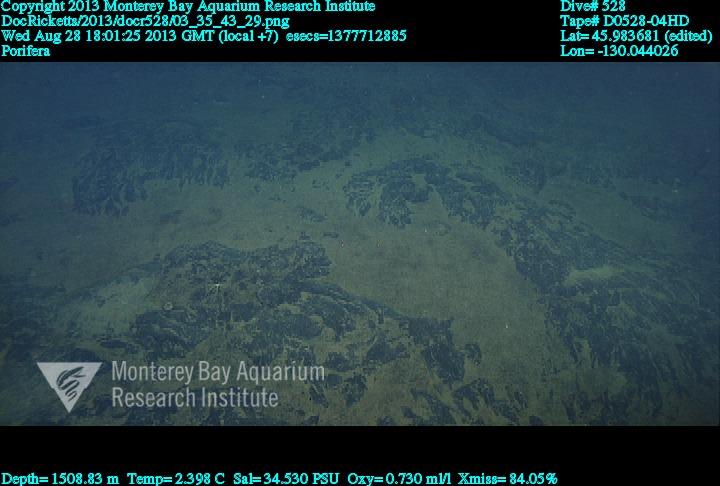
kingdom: Animalia
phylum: Porifera
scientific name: Porifera
